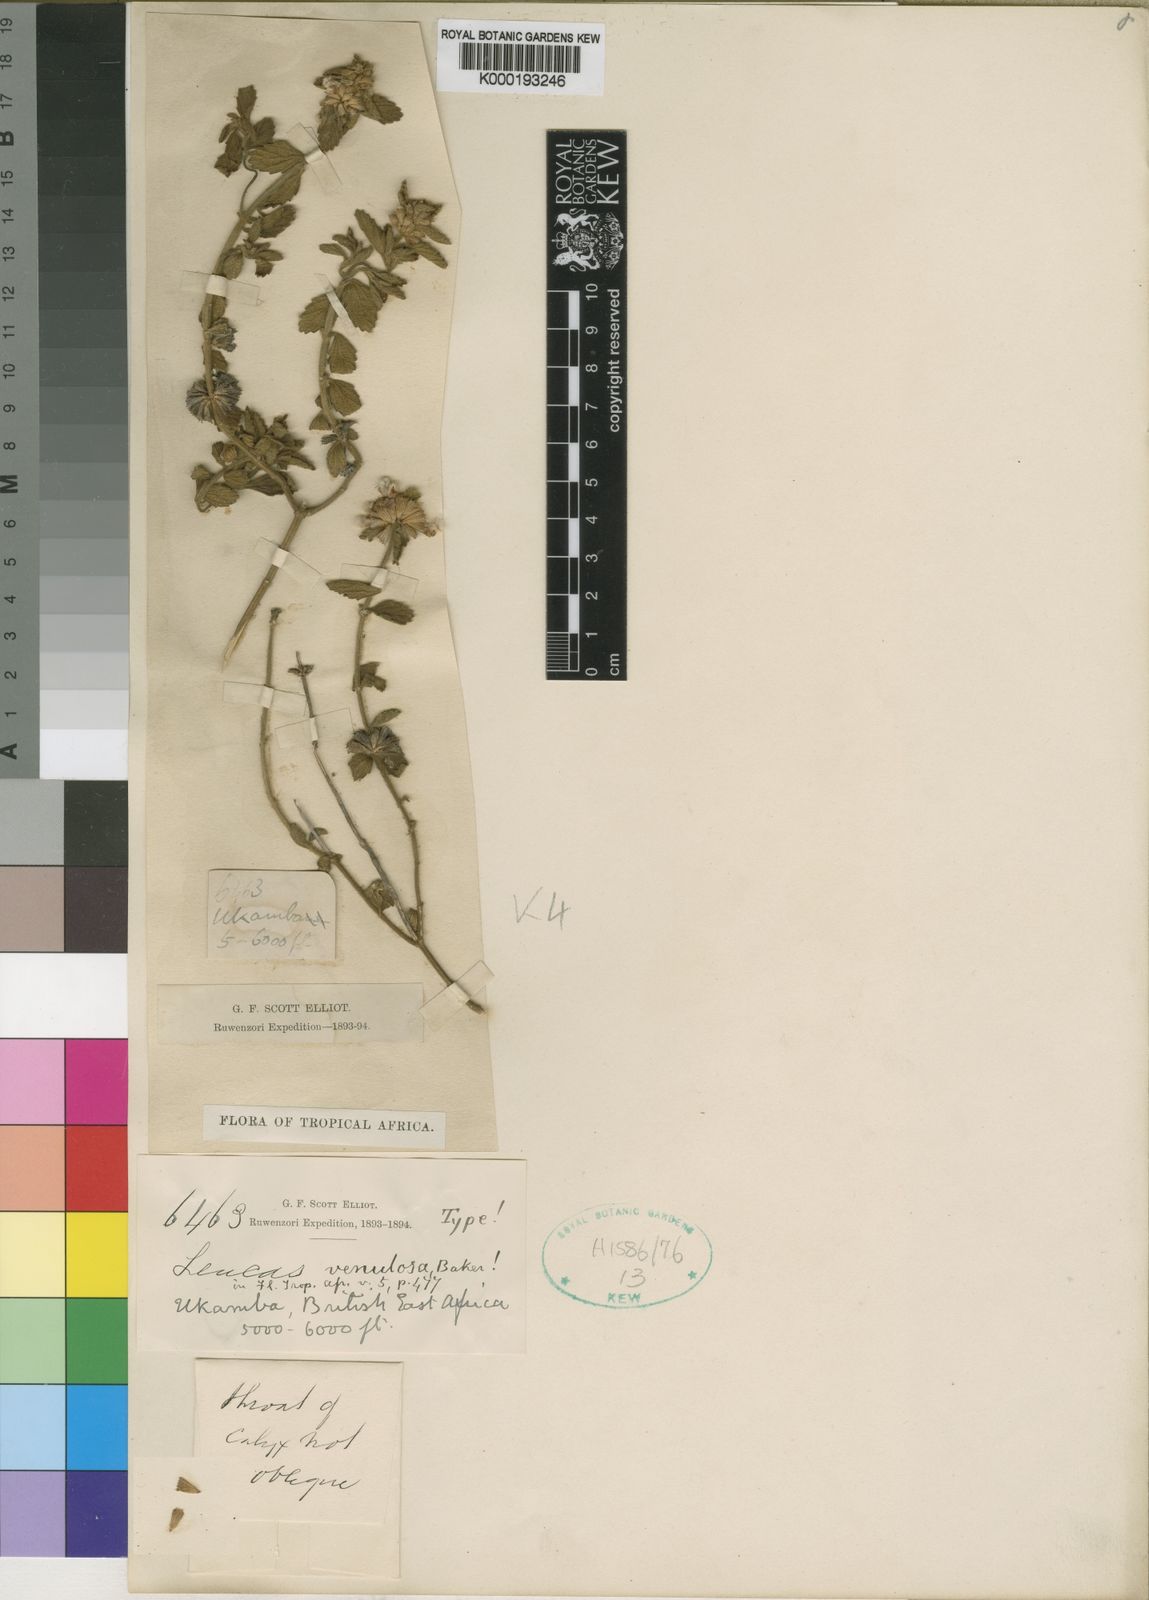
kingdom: Plantae
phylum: Tracheophyta
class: Magnoliopsida
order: Lamiales
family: Lamiaceae
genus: Leucas
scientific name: Leucas masaiensis
